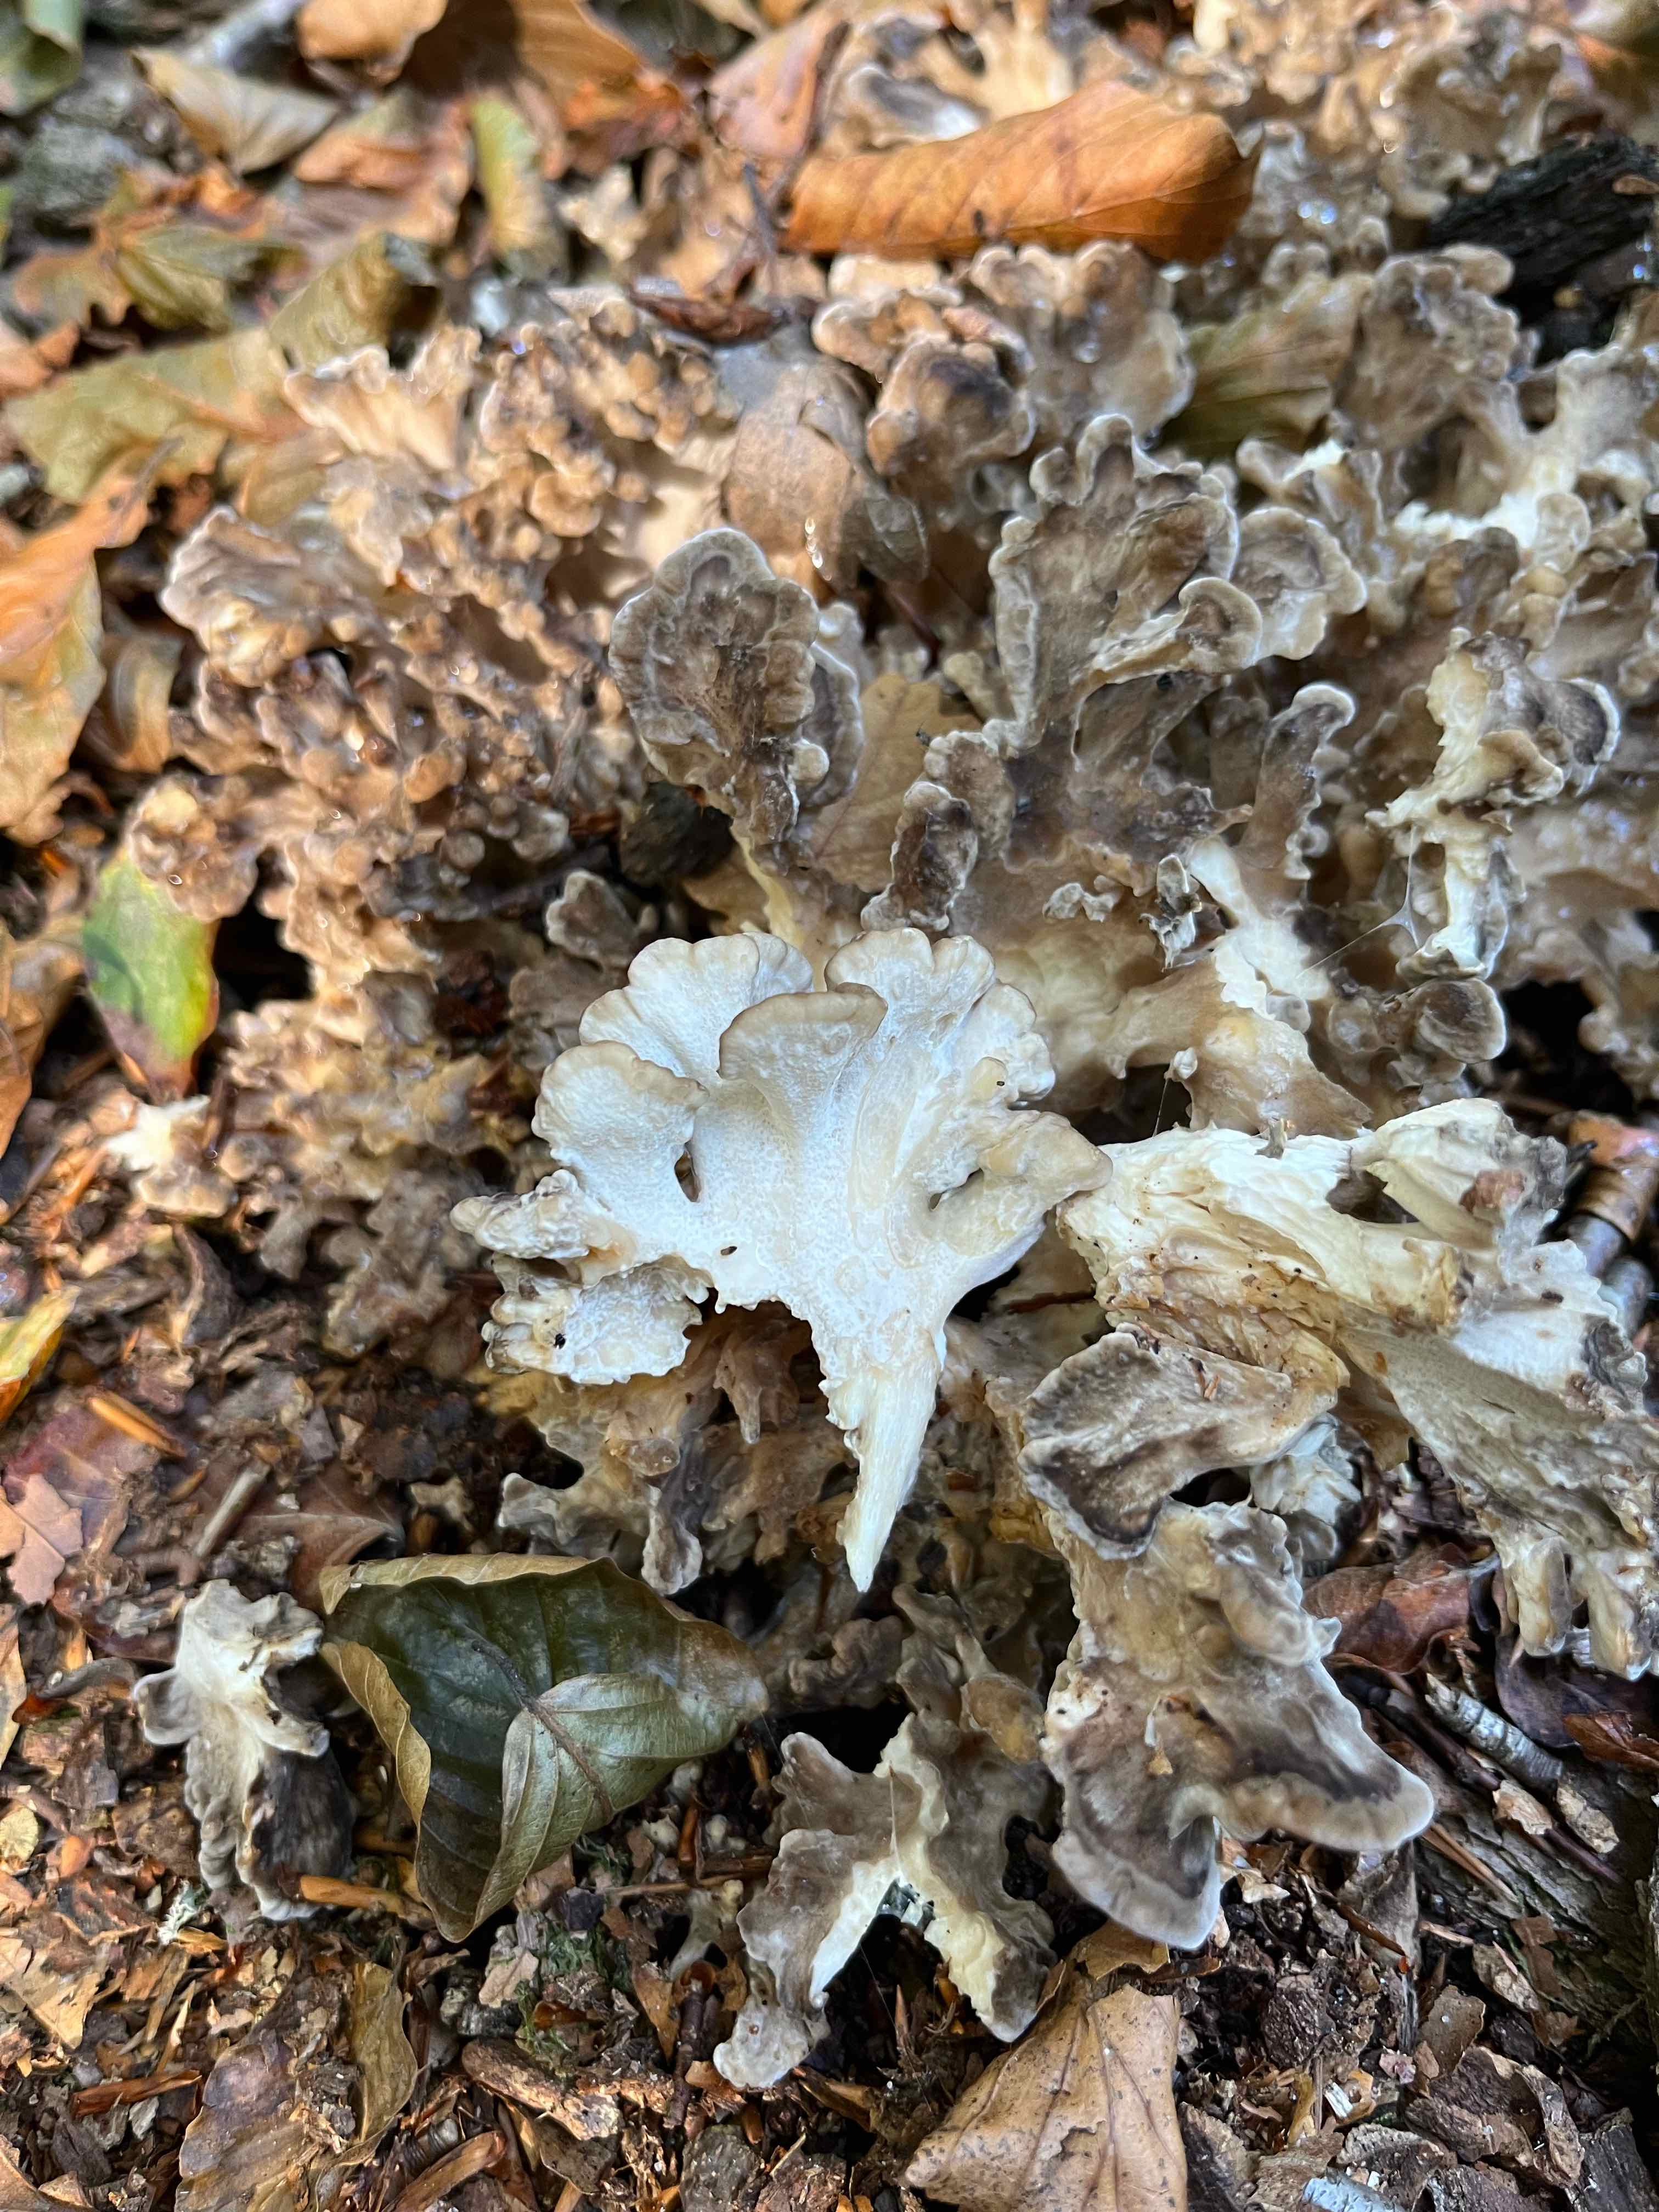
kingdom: Fungi
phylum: Basidiomycota
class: Agaricomycetes
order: Polyporales
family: Grifolaceae
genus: Grifola
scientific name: Grifola frondosa
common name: tueporesvamp
